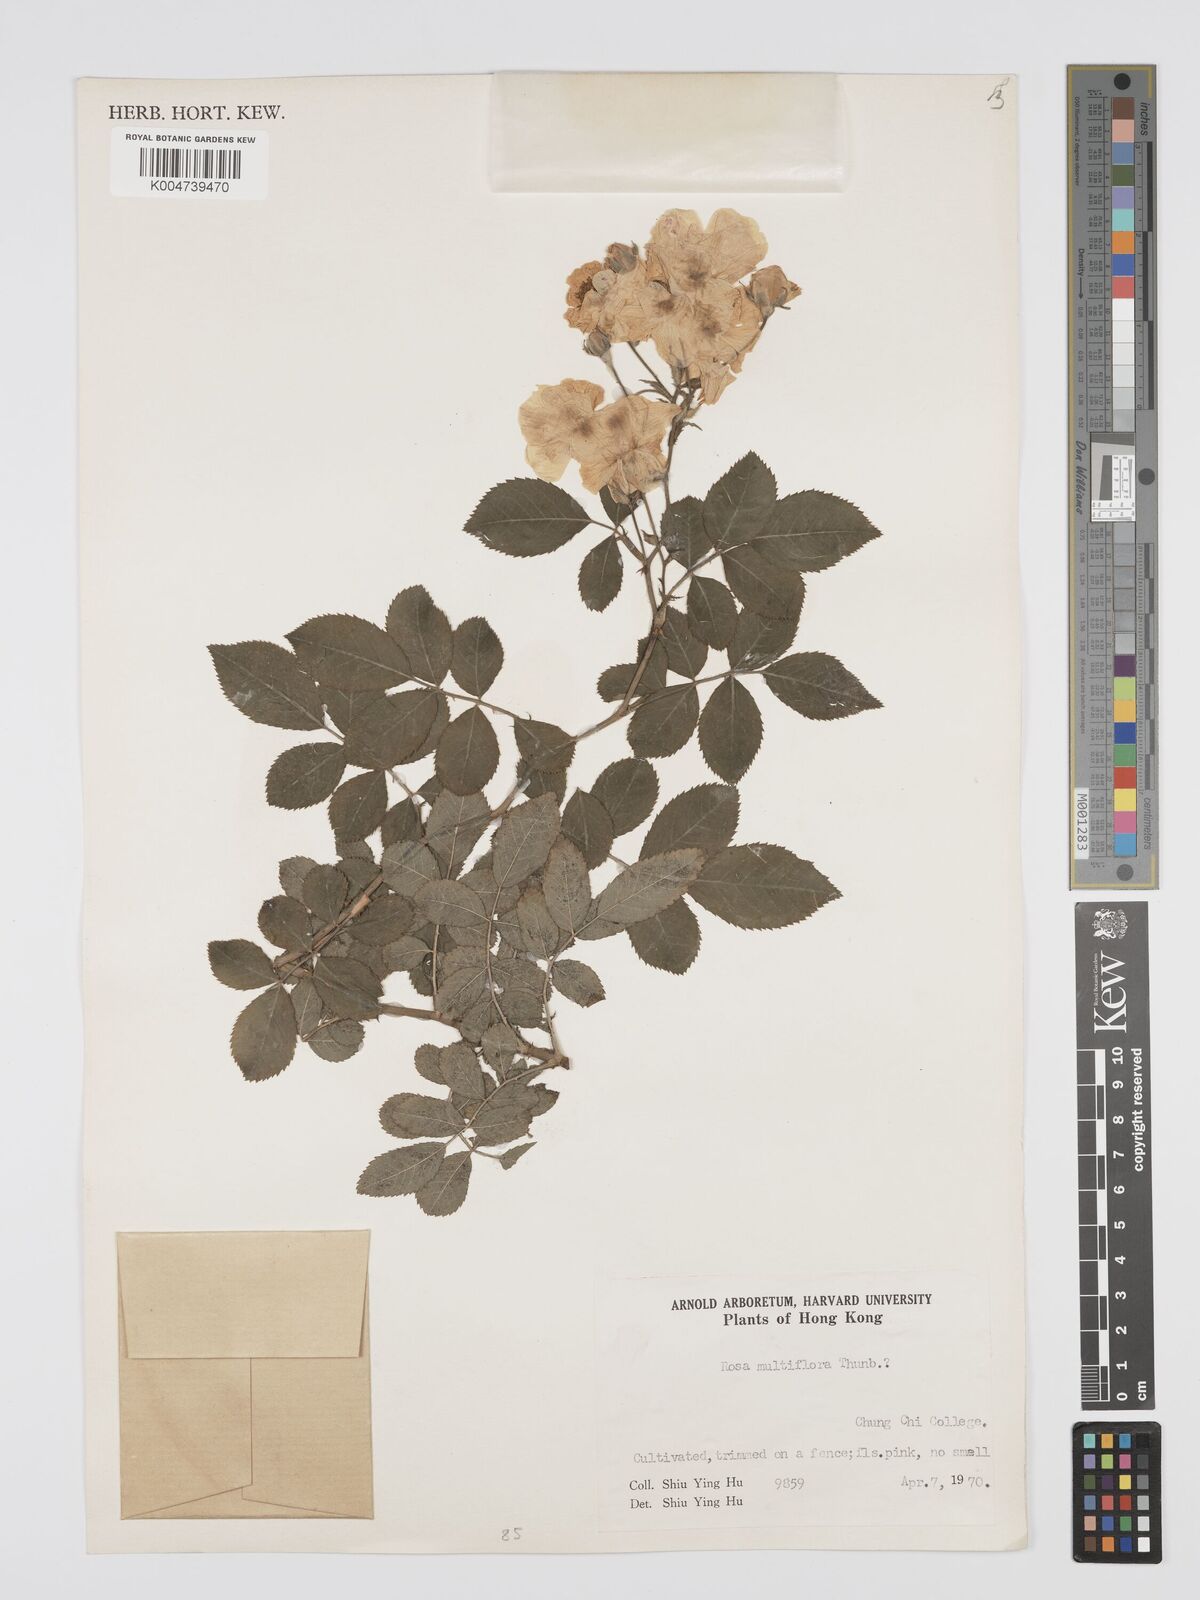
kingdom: Plantae
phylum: Tracheophyta
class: Magnoliopsida
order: Rosales
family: Rosaceae
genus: Rosa
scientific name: Rosa
